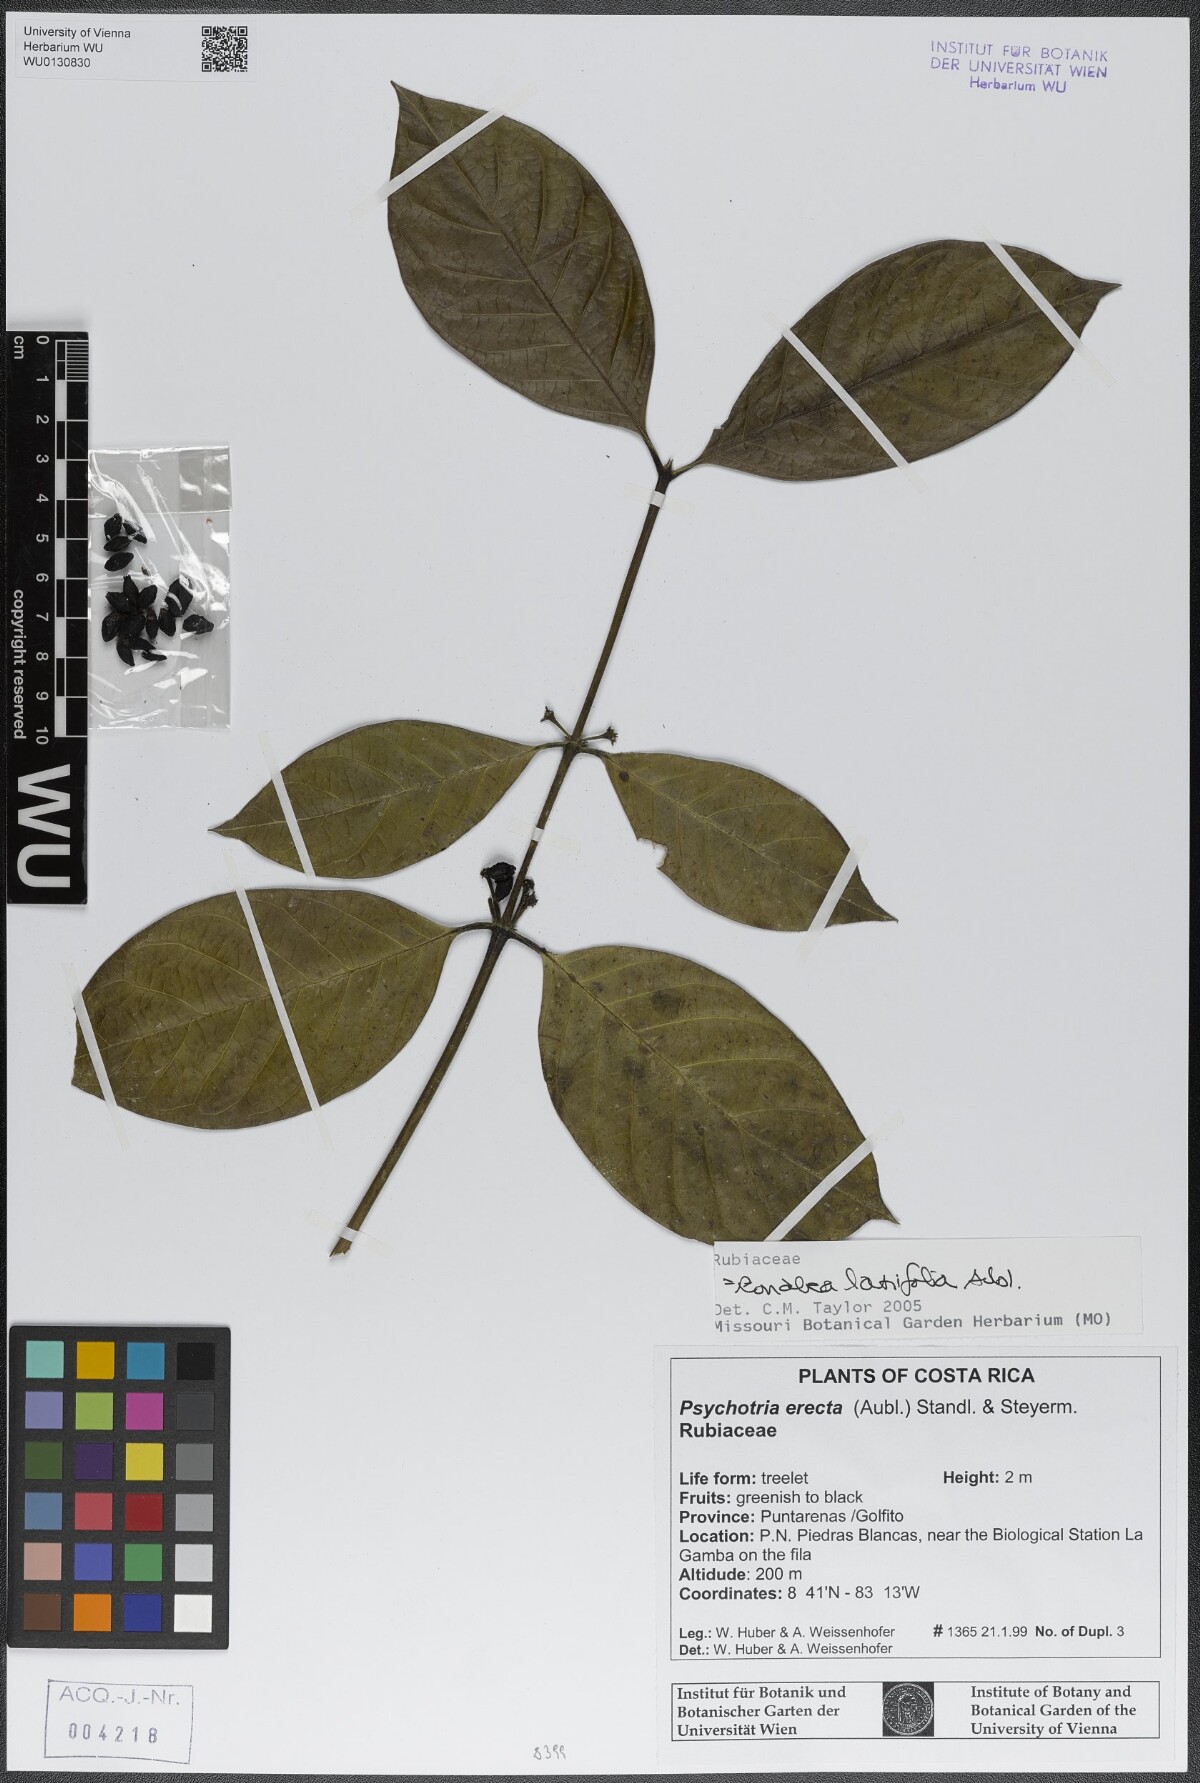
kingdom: Plantae
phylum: Tracheophyta
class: Magnoliopsida
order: Gentianales
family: Rubiaceae
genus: Ronabea
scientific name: Ronabea latifolia
